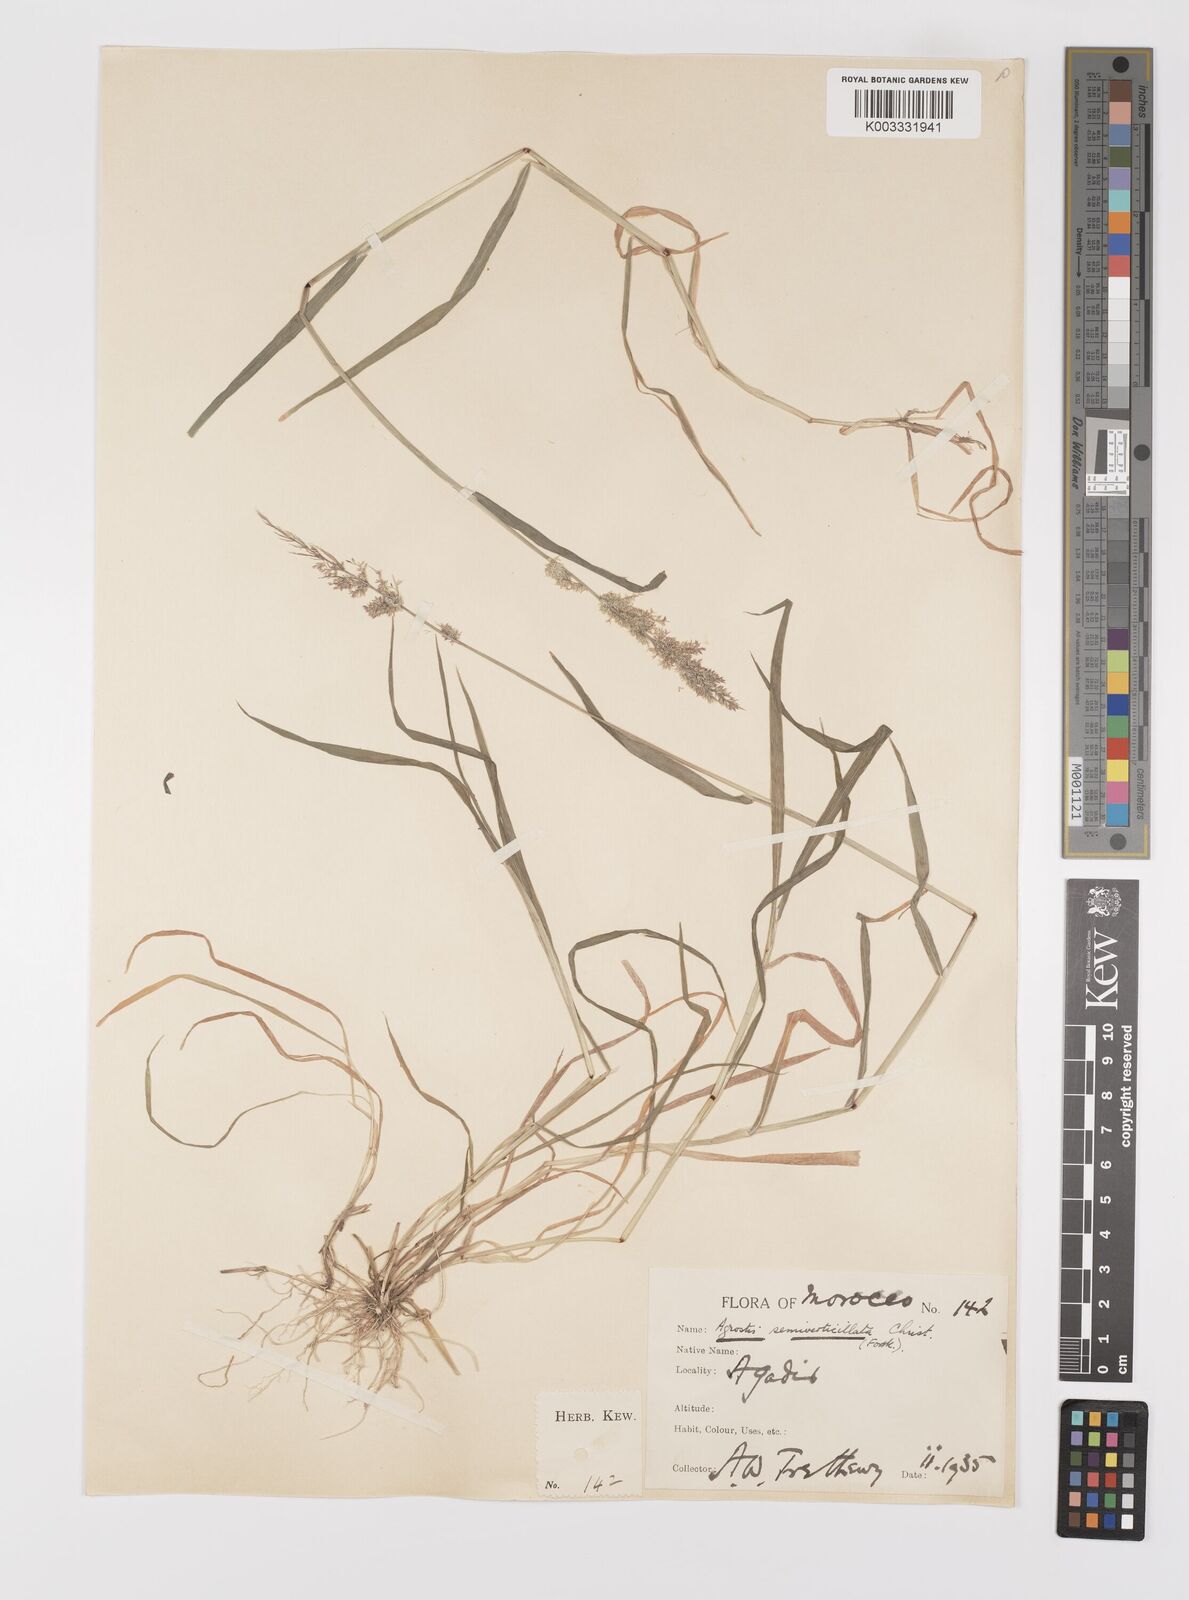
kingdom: Plantae
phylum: Tracheophyta
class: Liliopsida
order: Poales
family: Poaceae
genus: Polypogon
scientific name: Polypogon viridis
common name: Water bent
